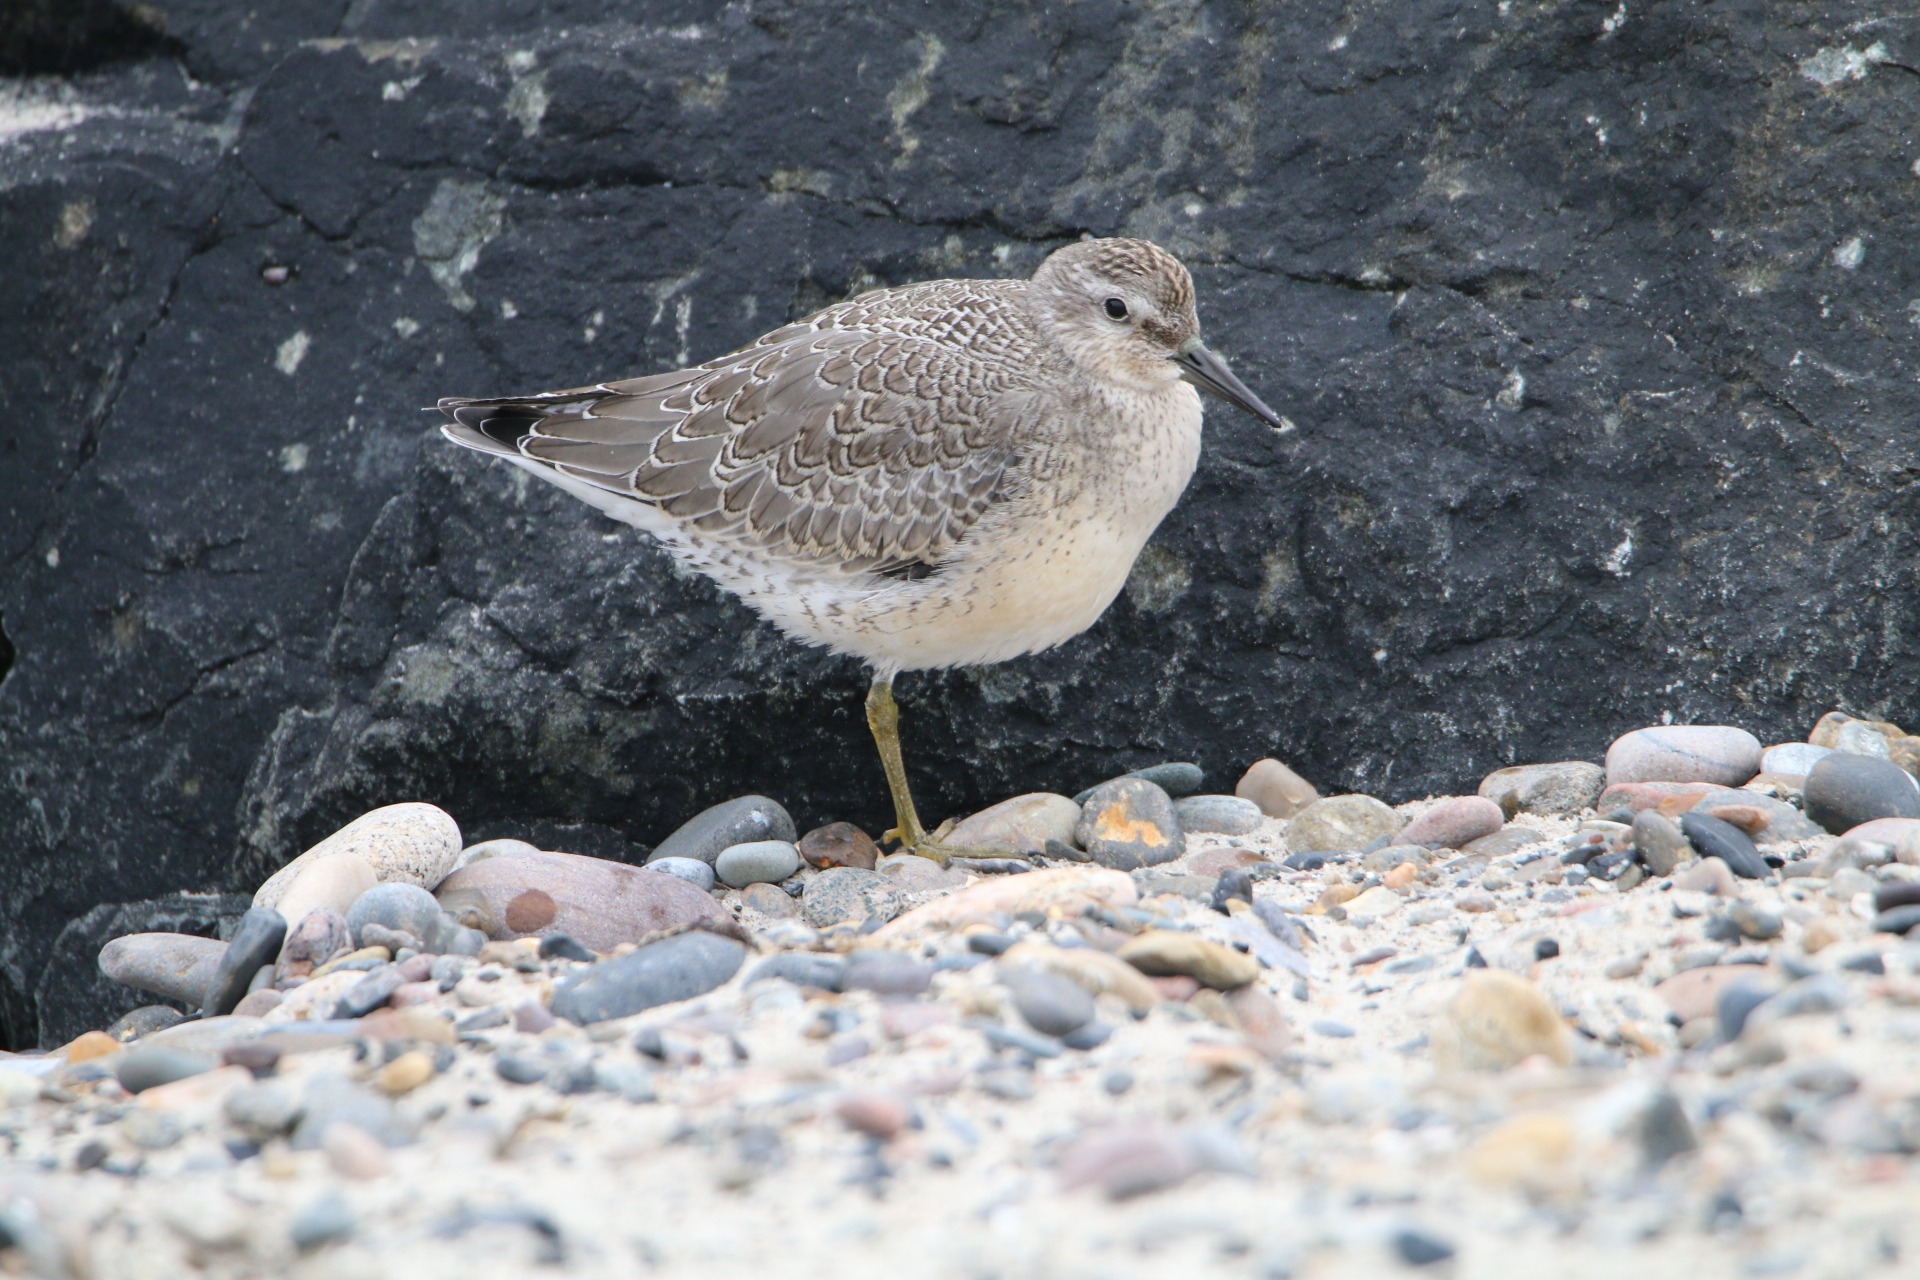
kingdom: Animalia
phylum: Chordata
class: Aves
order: Charadriiformes
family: Scolopacidae
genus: Calidris
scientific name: Calidris canutus
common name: Islandsk ryle
